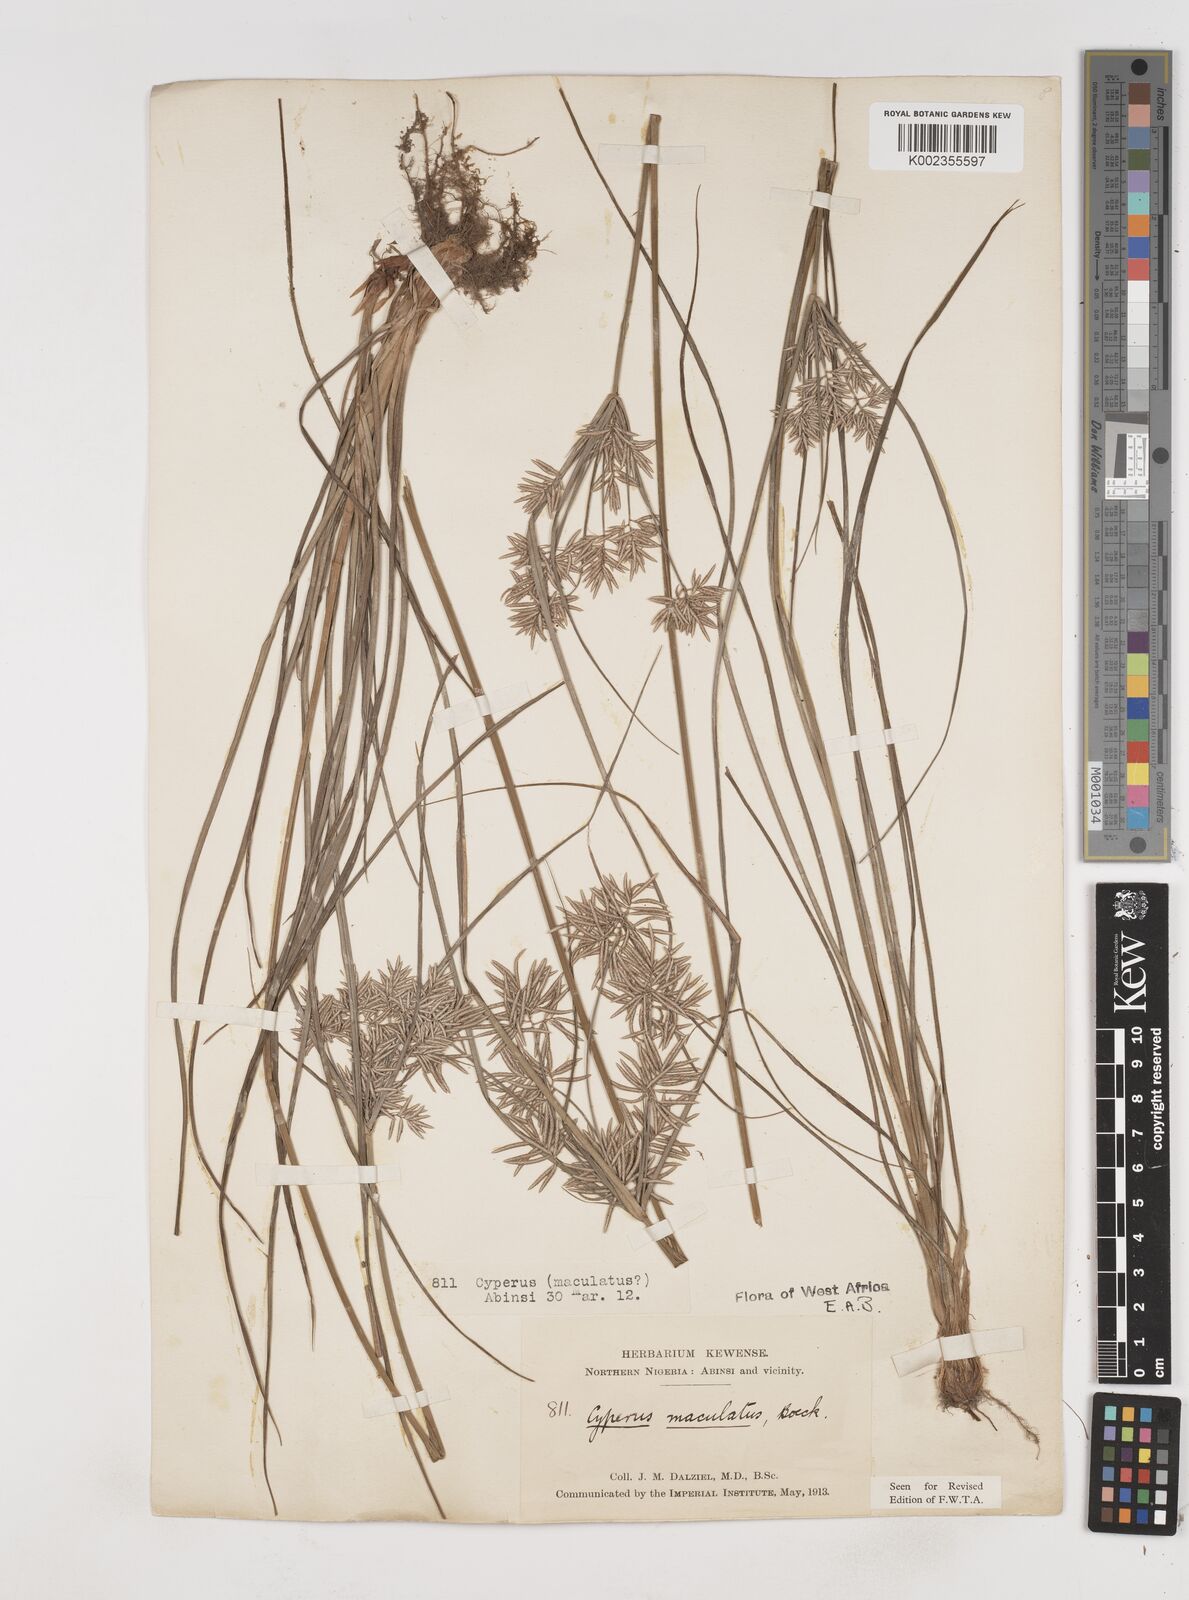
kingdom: Plantae
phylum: Tracheophyta
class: Liliopsida
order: Poales
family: Cyperaceae
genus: Cyperus
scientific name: Cyperus maculatus
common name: Maculated sedge
